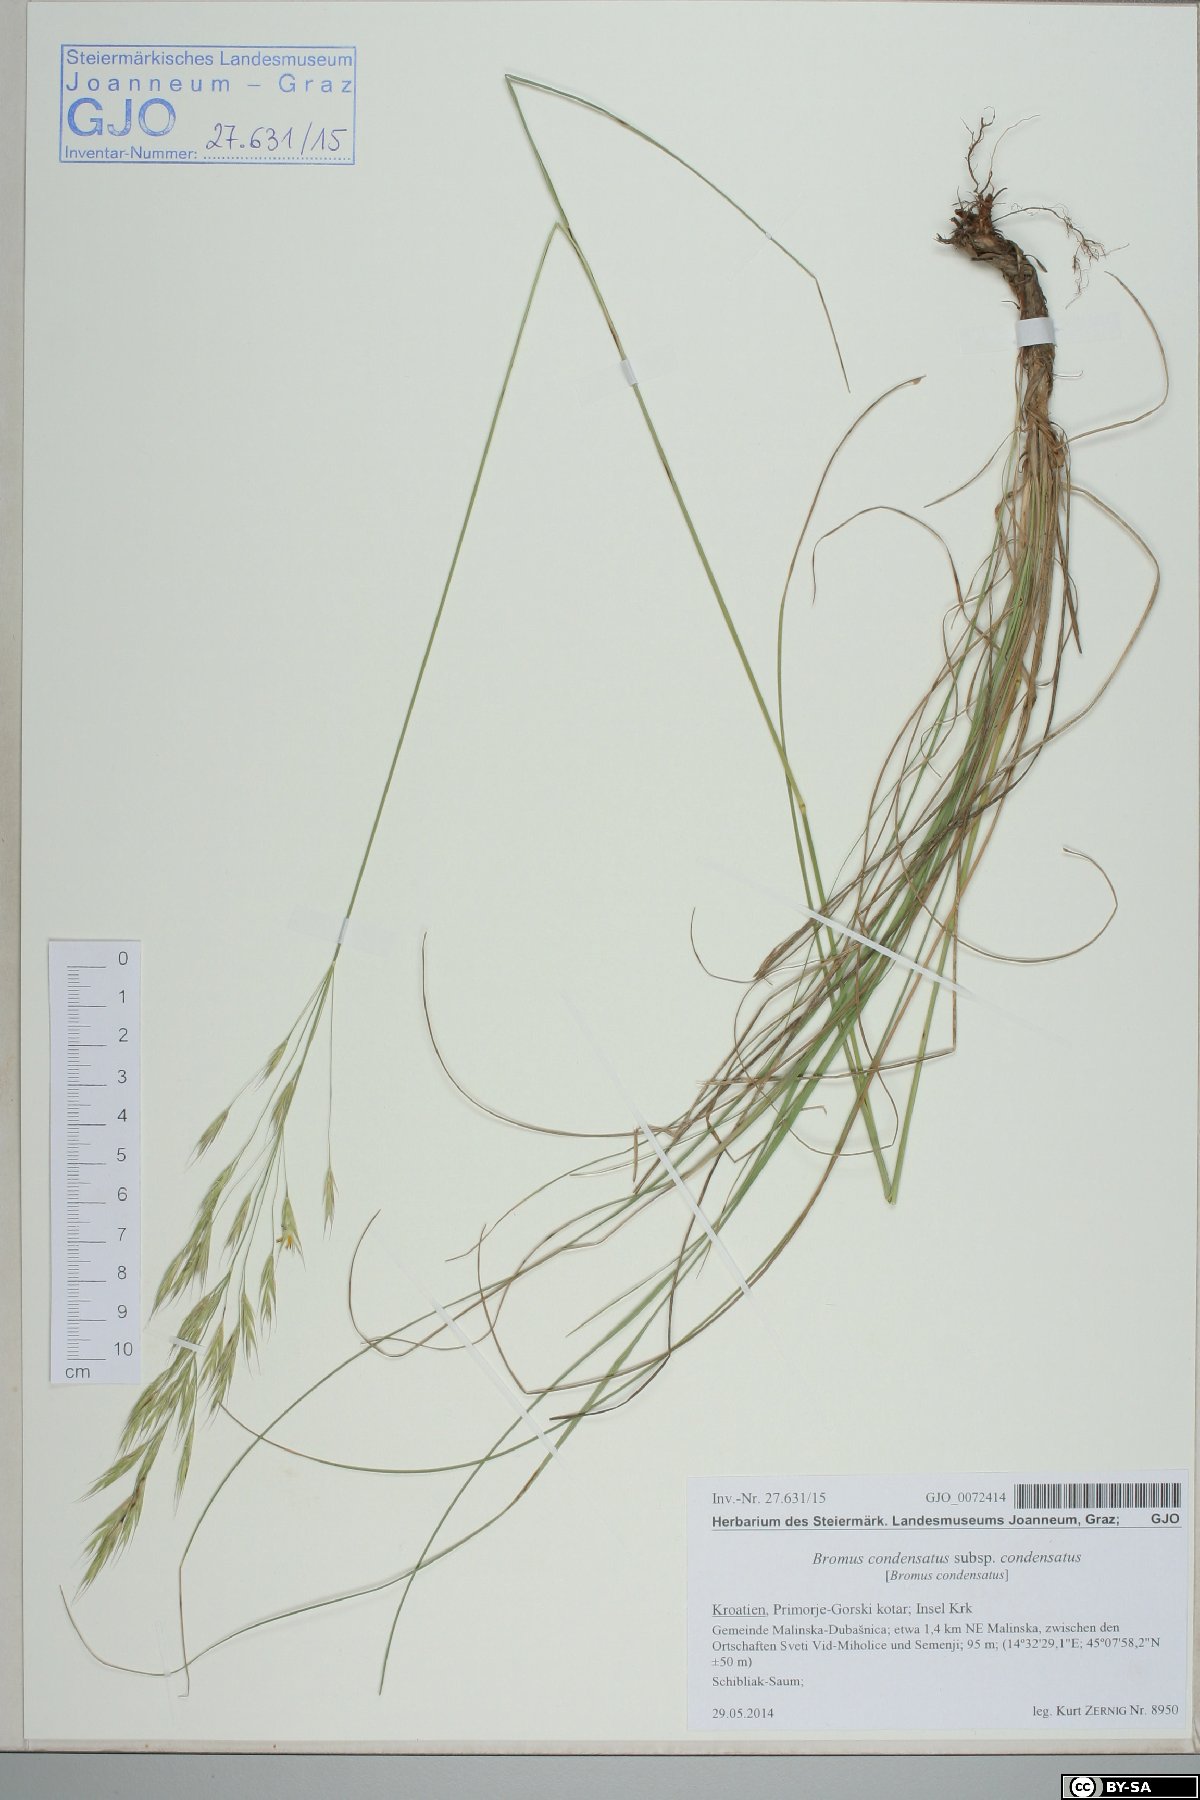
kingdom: Plantae
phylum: Tracheophyta
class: Liliopsida
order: Poales
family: Poaceae
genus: Bromus
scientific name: Bromus condensatus
